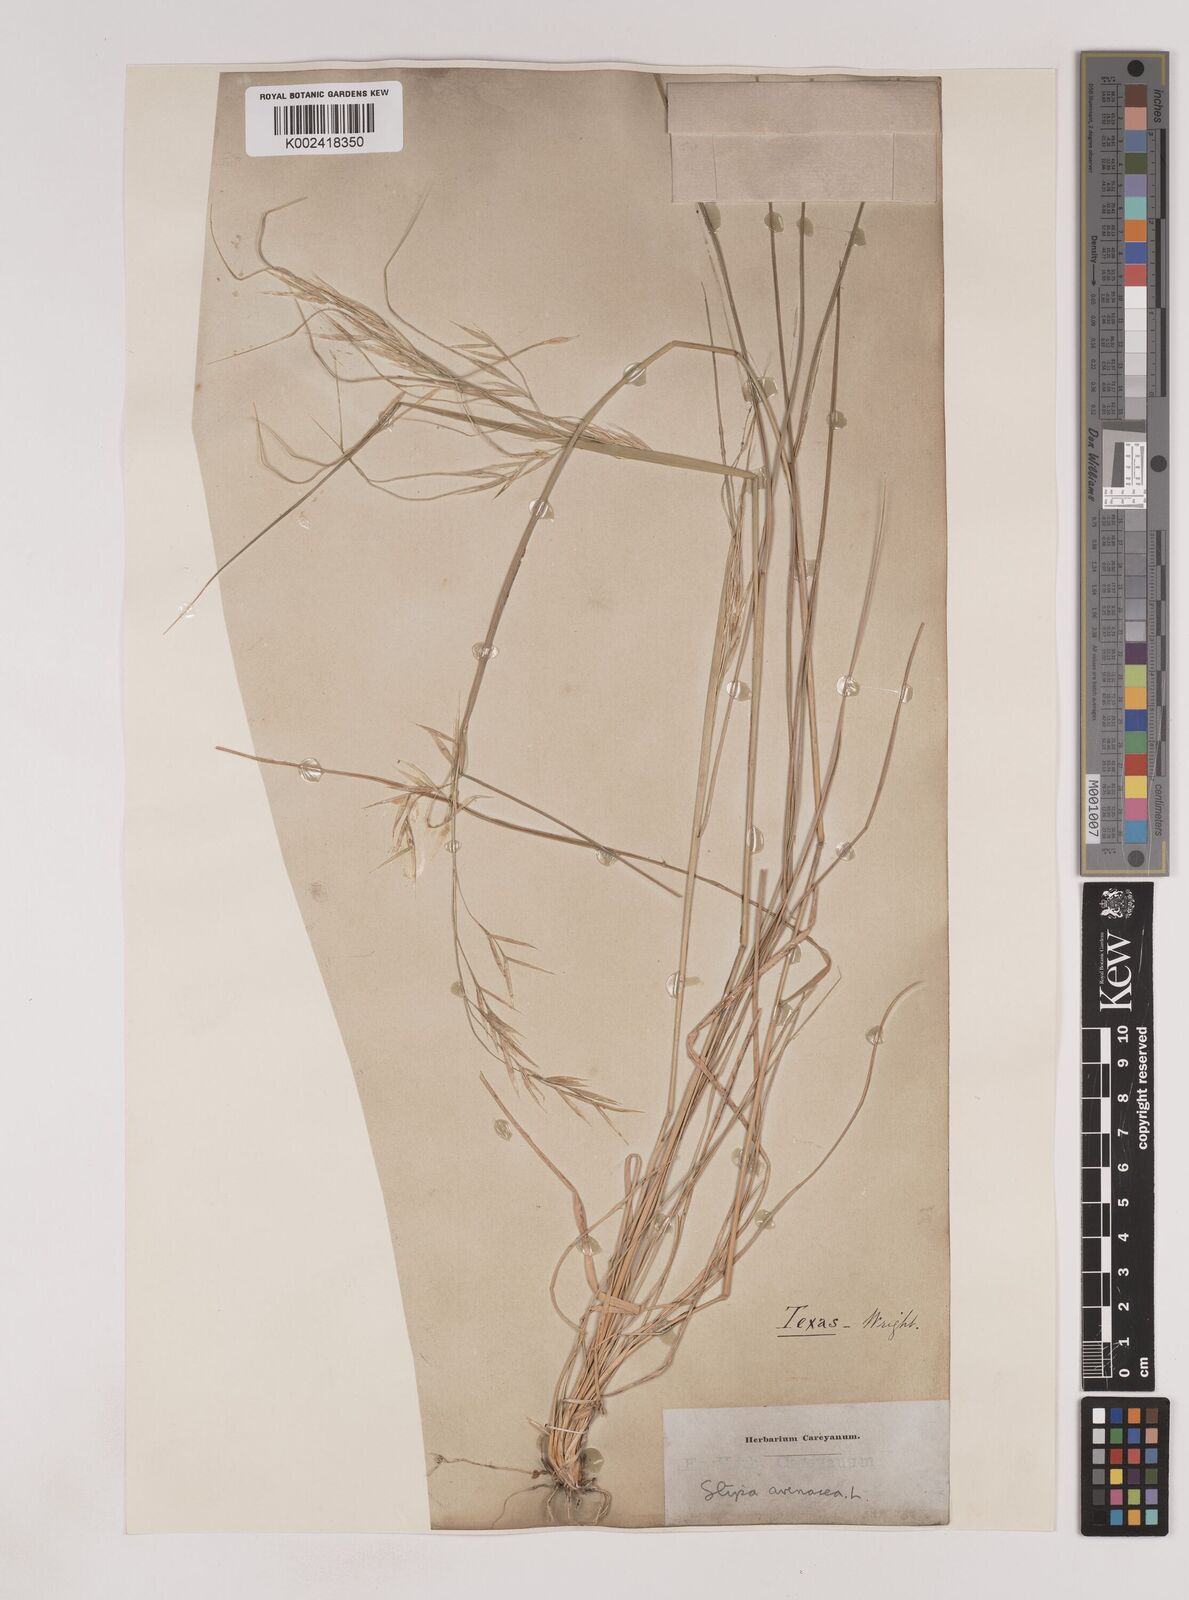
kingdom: Plantae
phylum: Tracheophyta
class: Liliopsida
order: Poales
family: Poaceae
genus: Piptochaetium
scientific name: Piptochaetium avenaceum
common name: Black bunchgrass
